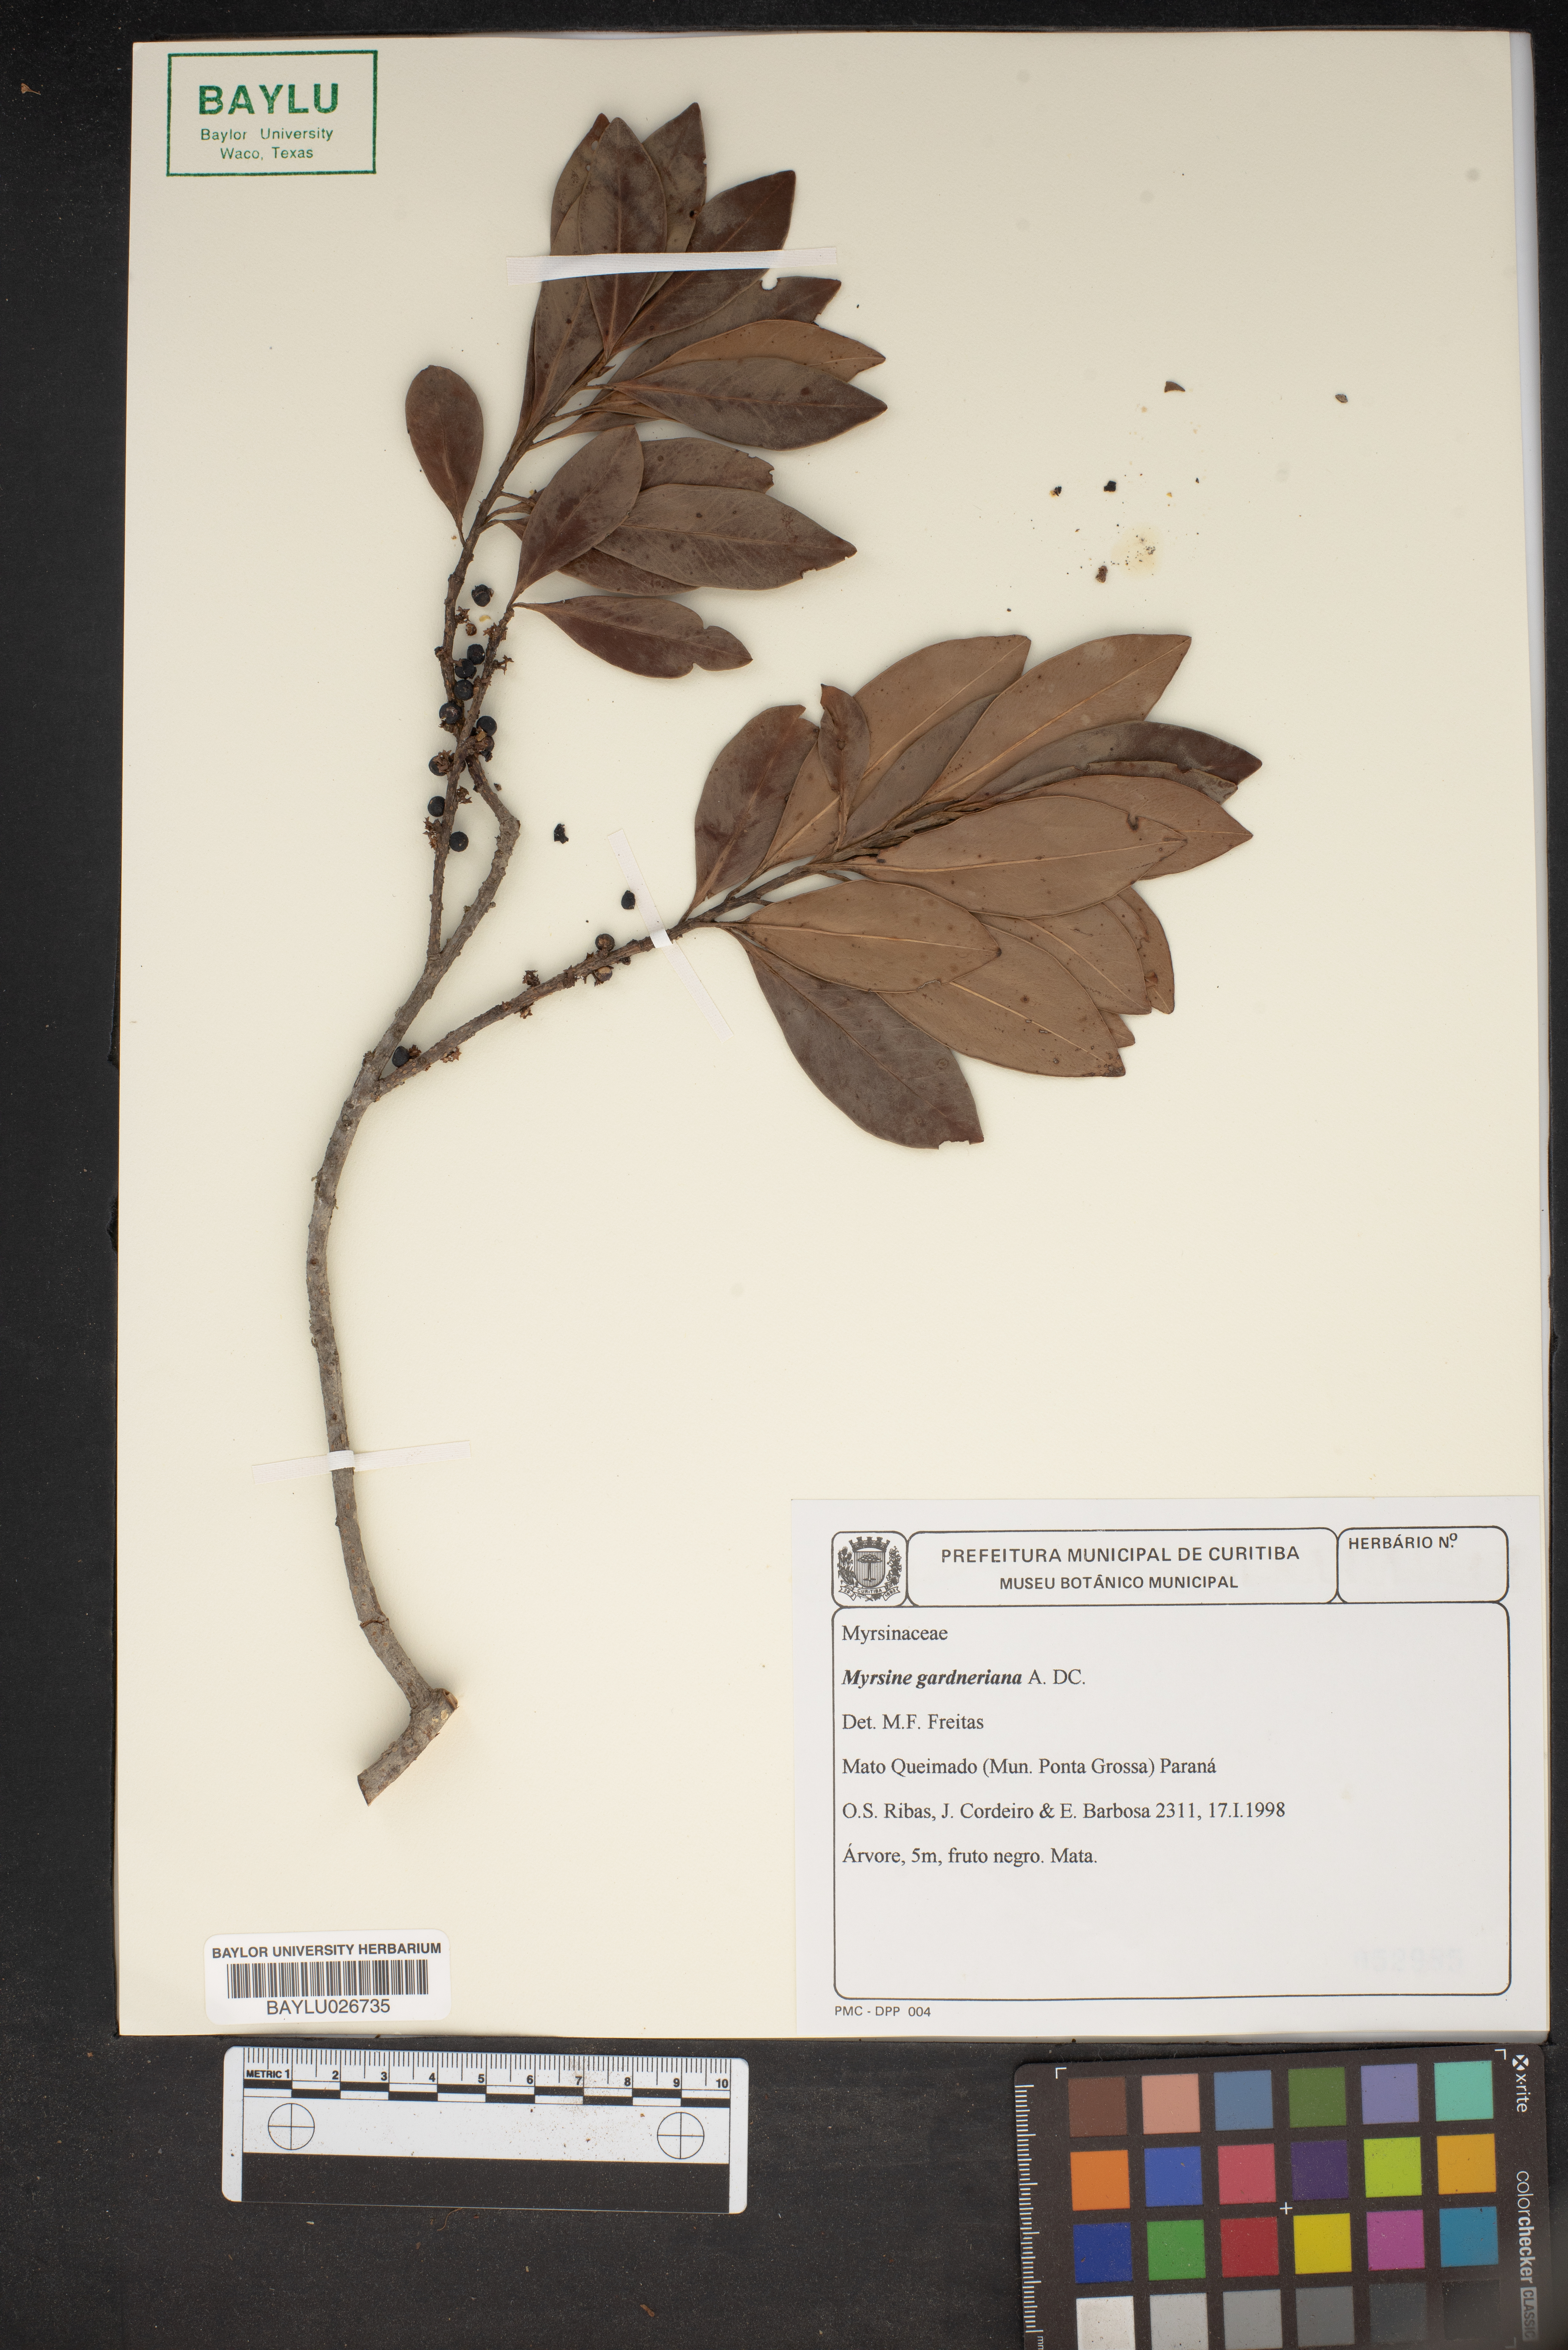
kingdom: Plantae
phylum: Tracheophyta
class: Magnoliopsida
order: Ericales
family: Primulaceae
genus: Myrsine
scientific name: Myrsine gardneriana
